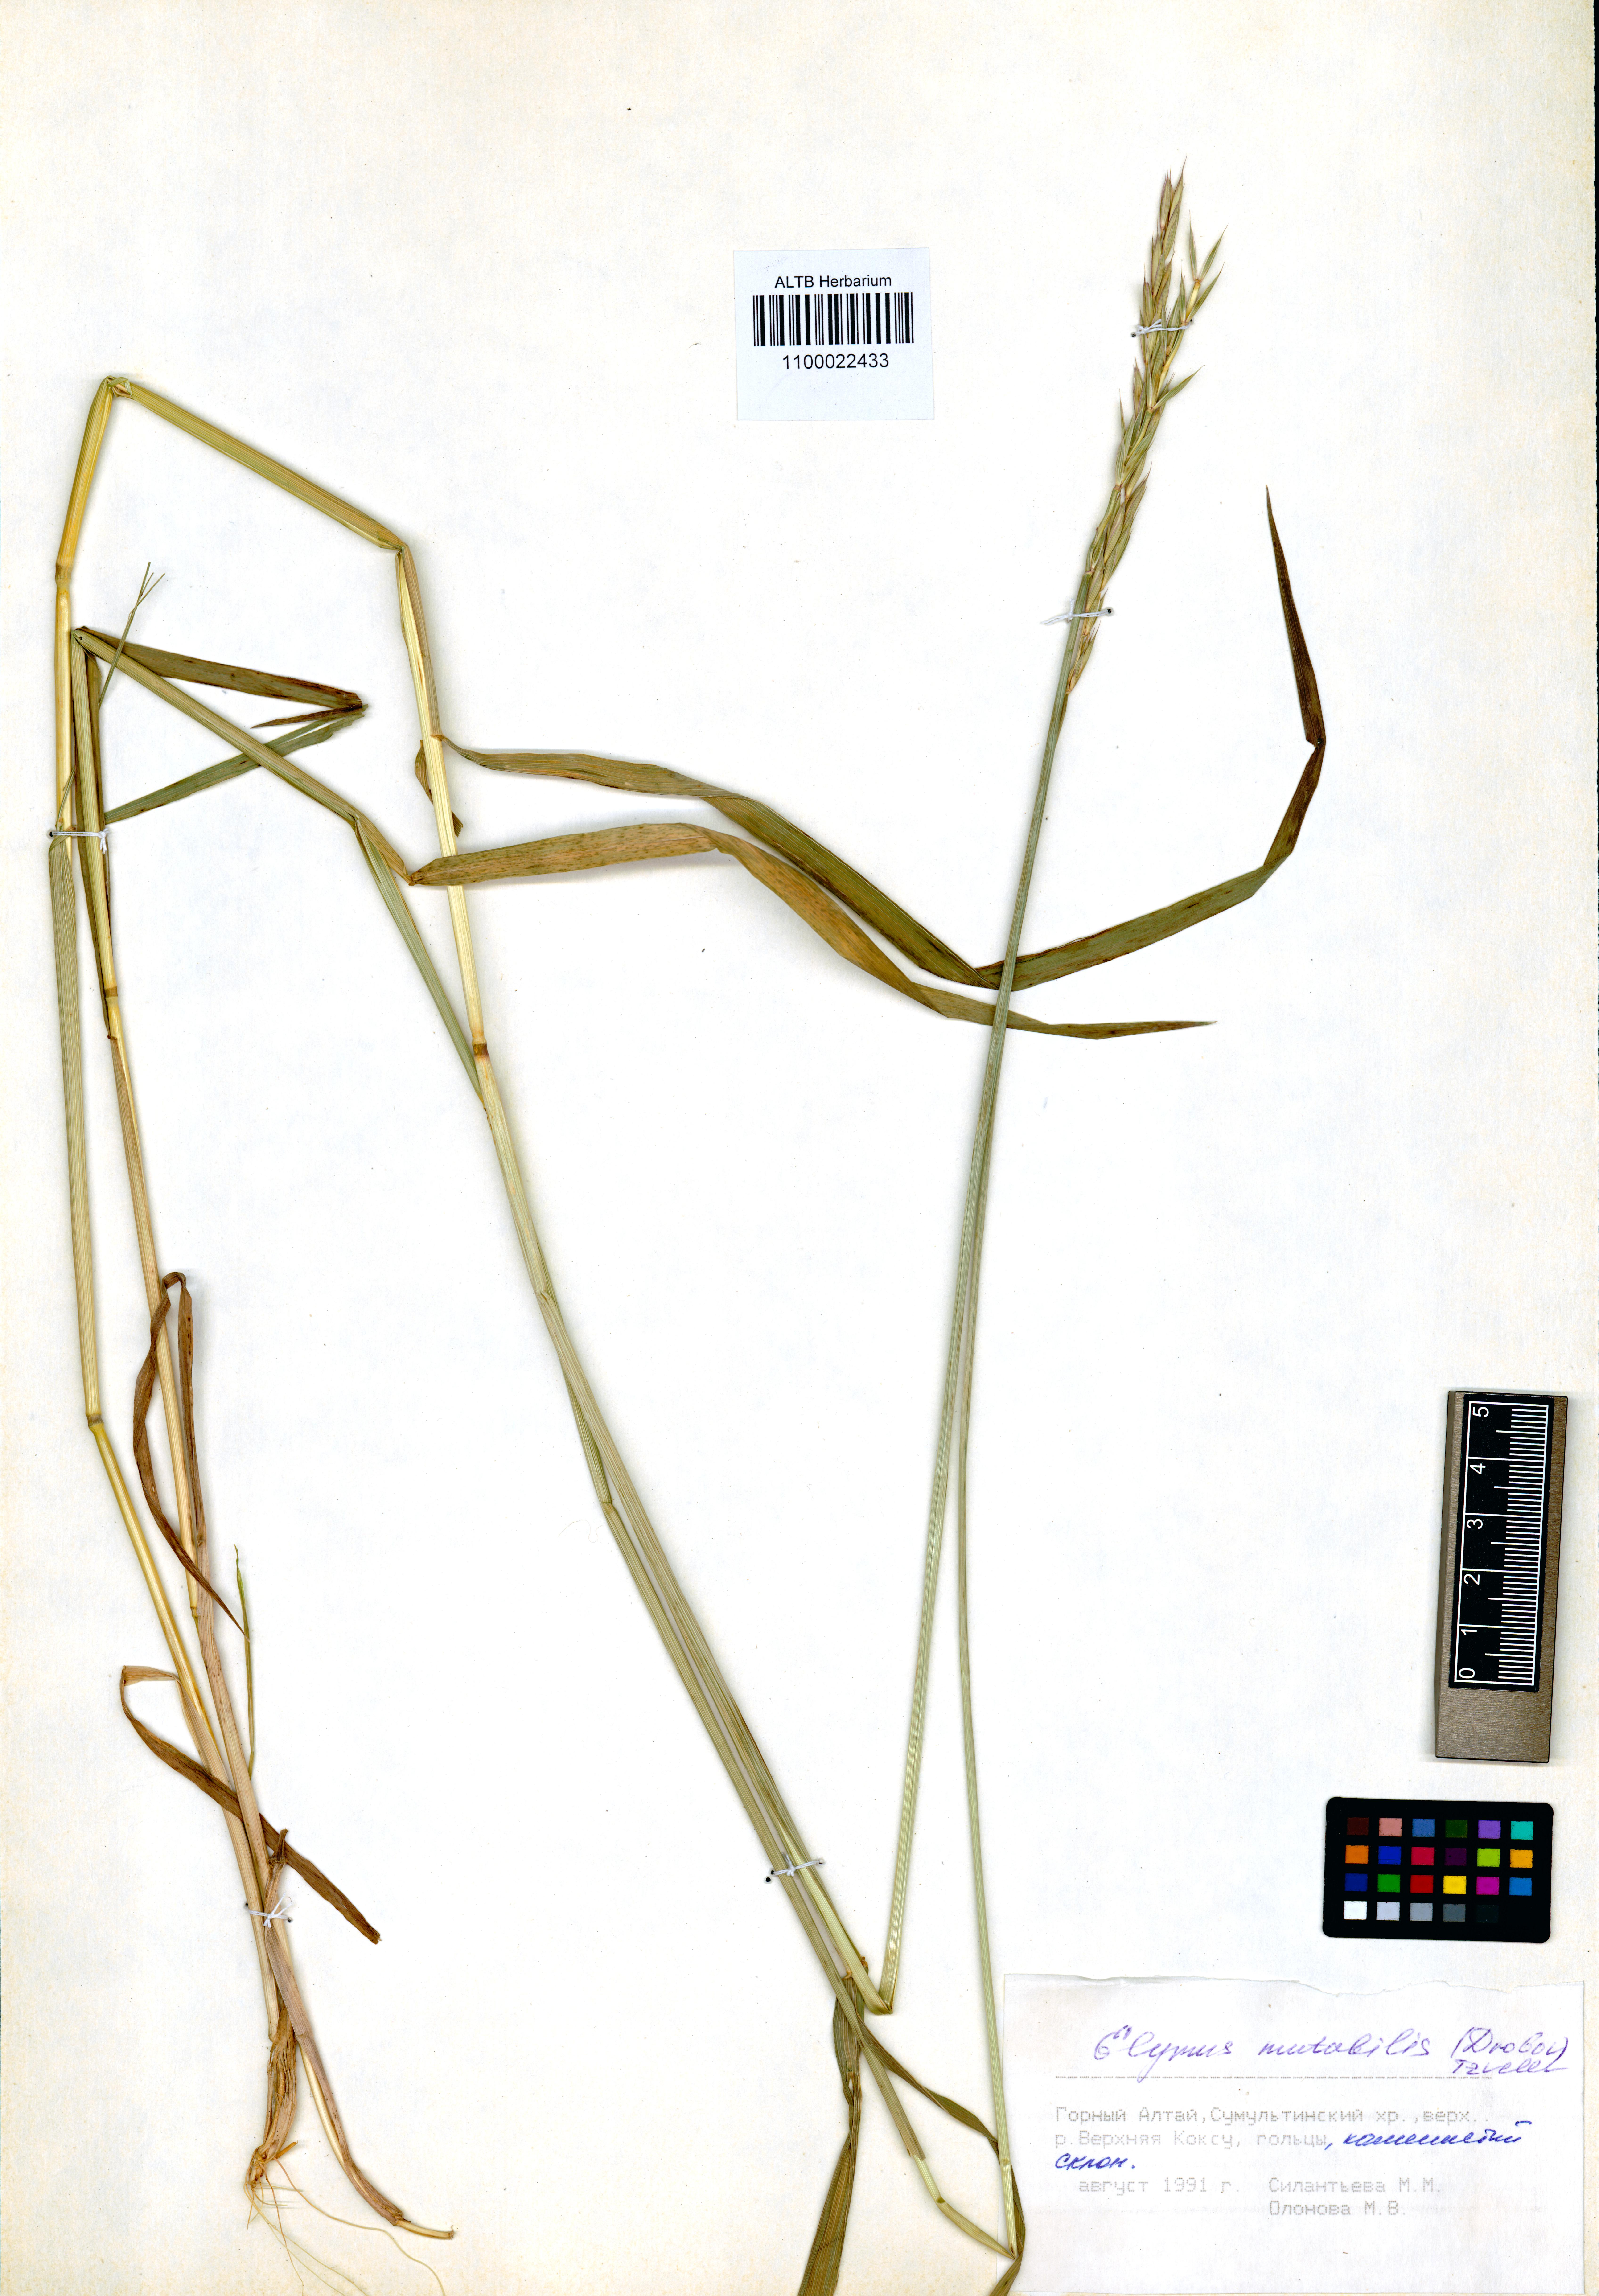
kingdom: Plantae
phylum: Tracheophyta
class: Liliopsida
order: Poales
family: Poaceae
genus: Elymus
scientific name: Elymus mutabilis
